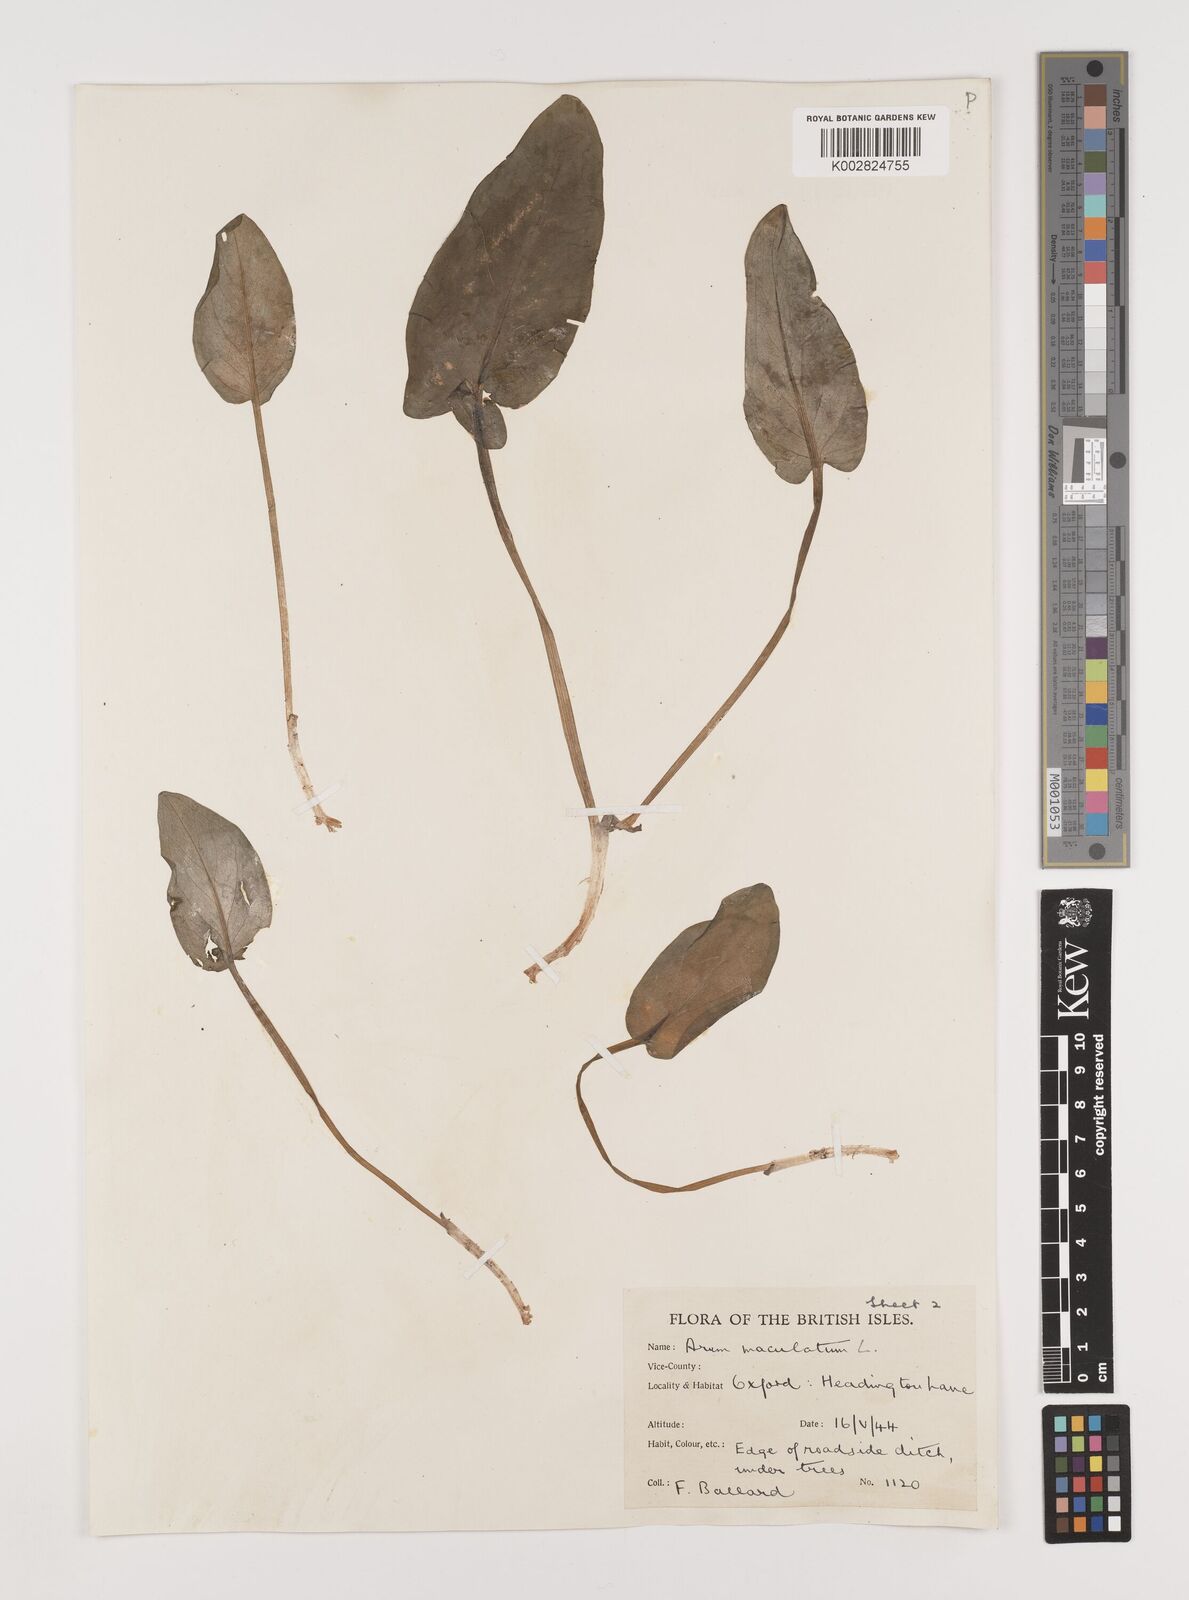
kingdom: Plantae
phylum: Tracheophyta
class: Liliopsida
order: Alismatales
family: Araceae
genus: Arum
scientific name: Arum maculatum
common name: Lords-and-ladies
